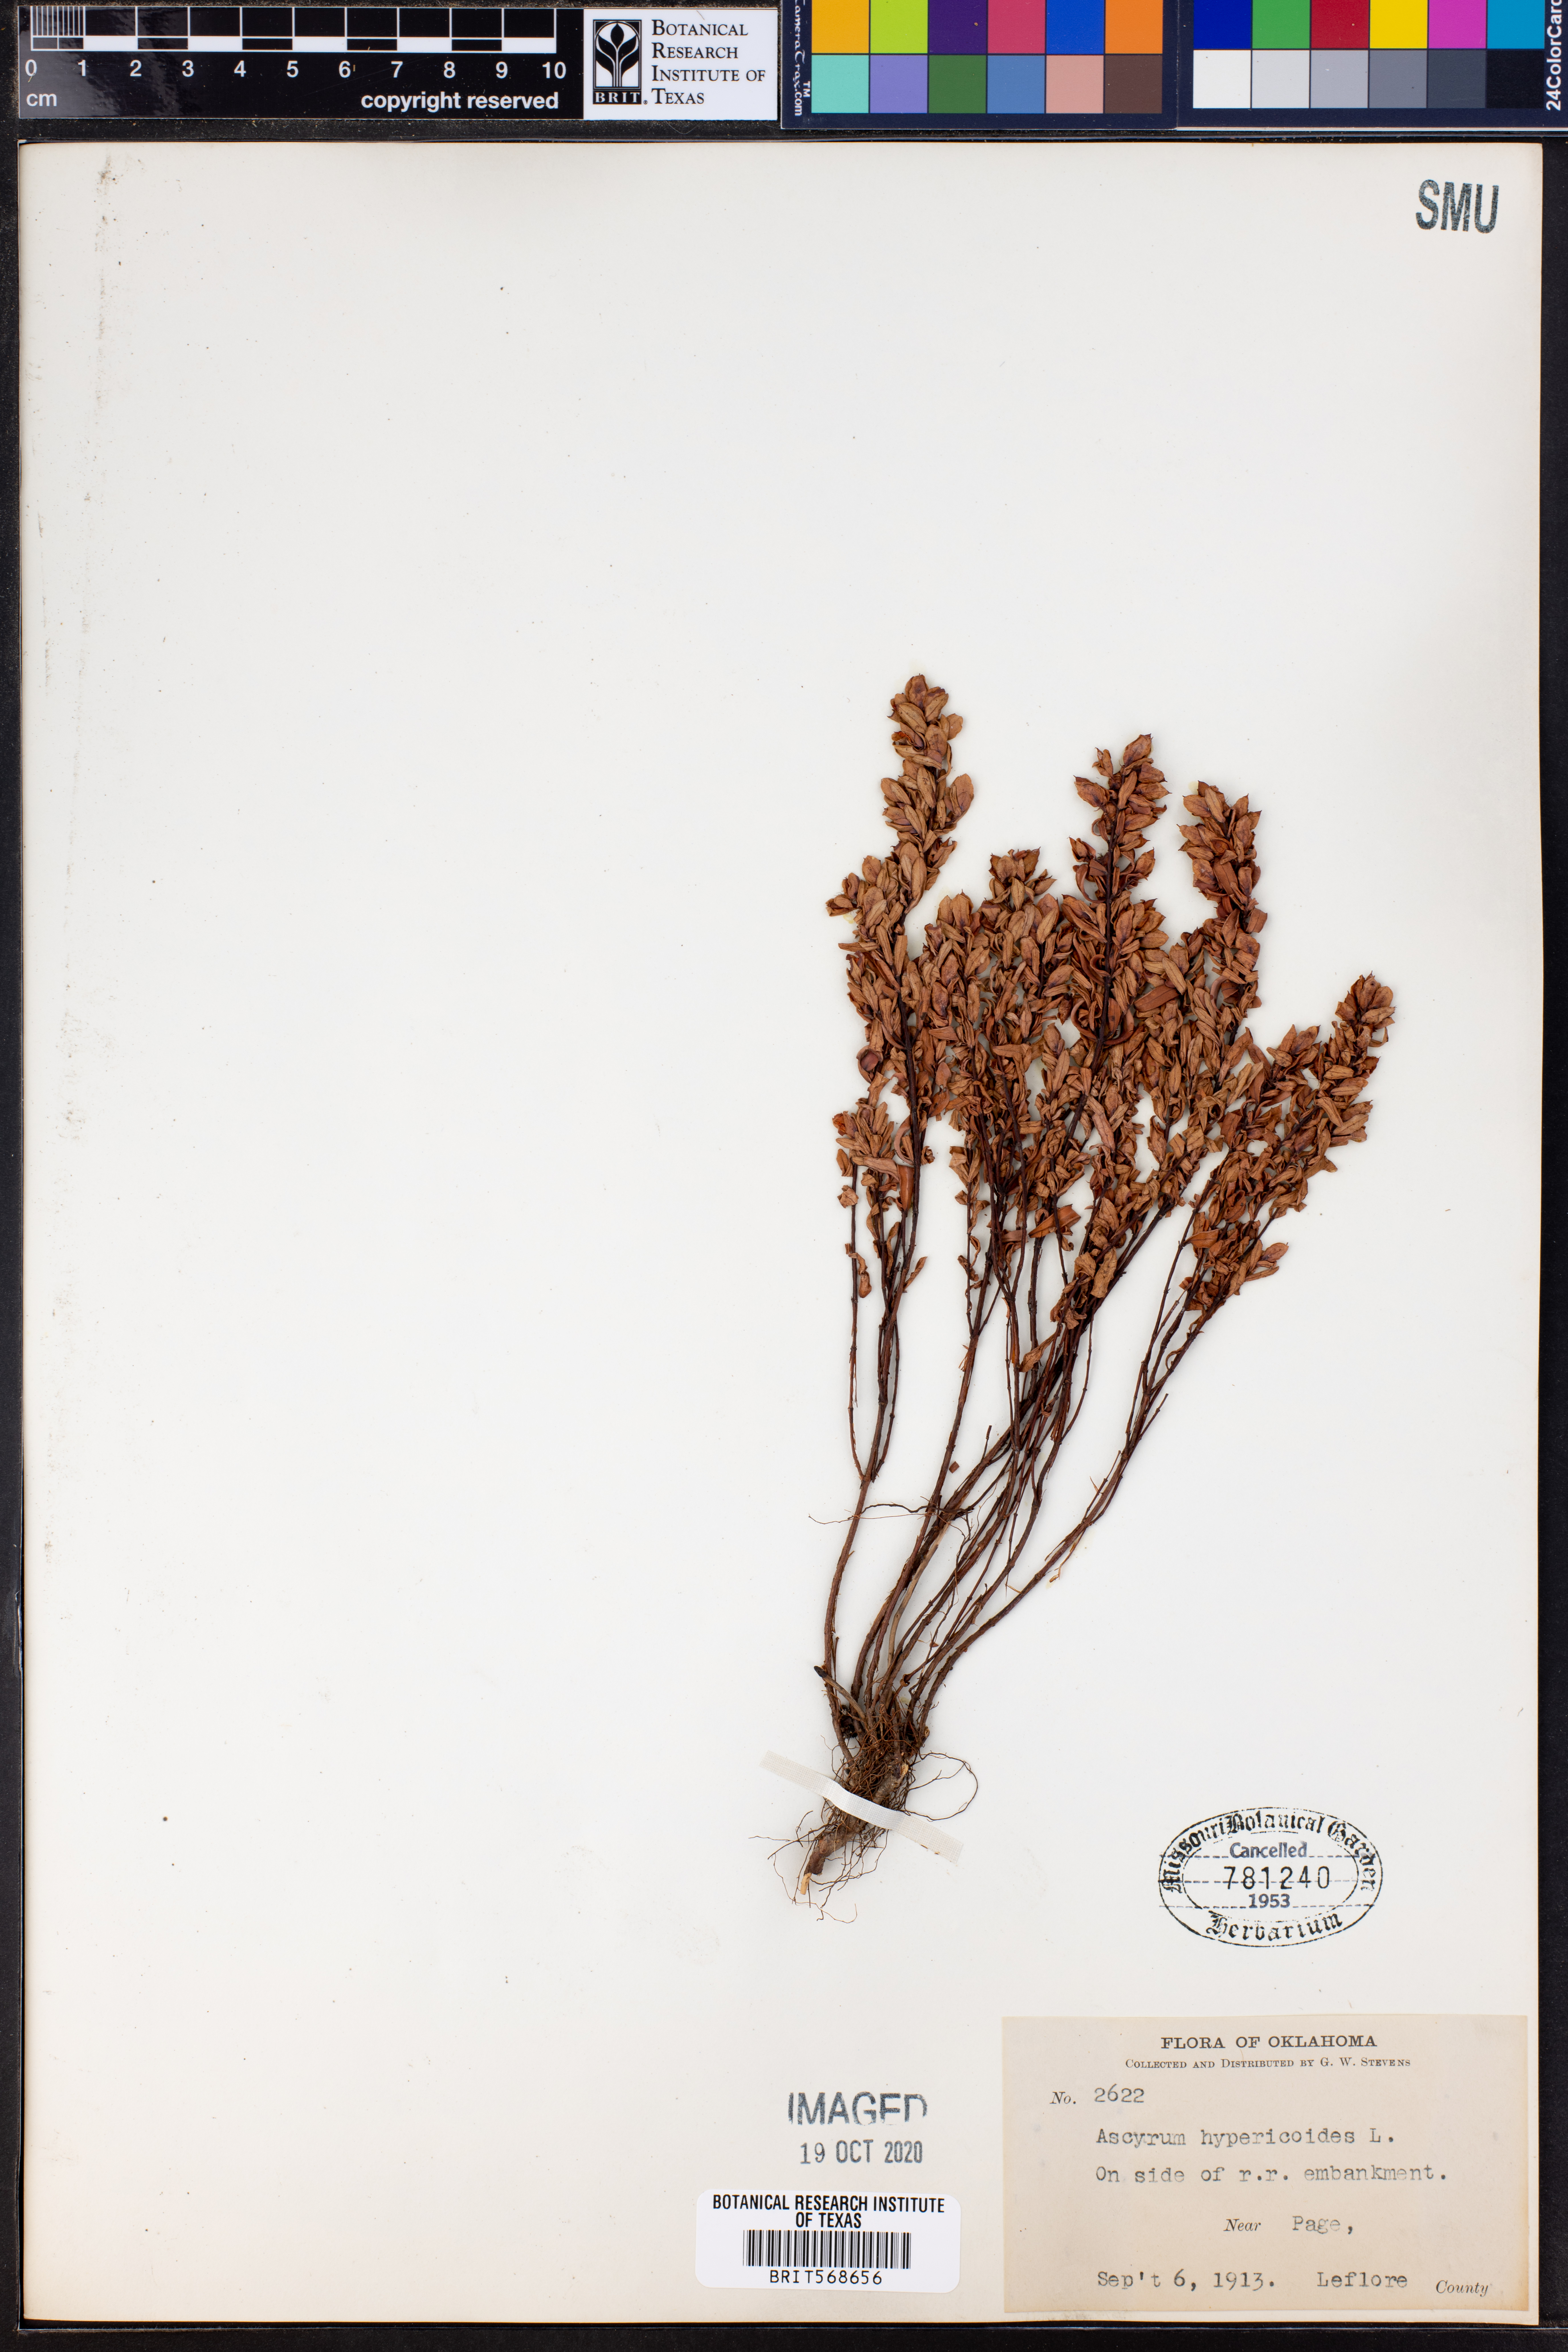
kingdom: Plantae
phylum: Tracheophyta
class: Magnoliopsida
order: Malpighiales
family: Hypericaceae
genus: Hypericum
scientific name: Hypericum hypericoides
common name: St. andrew's cross
